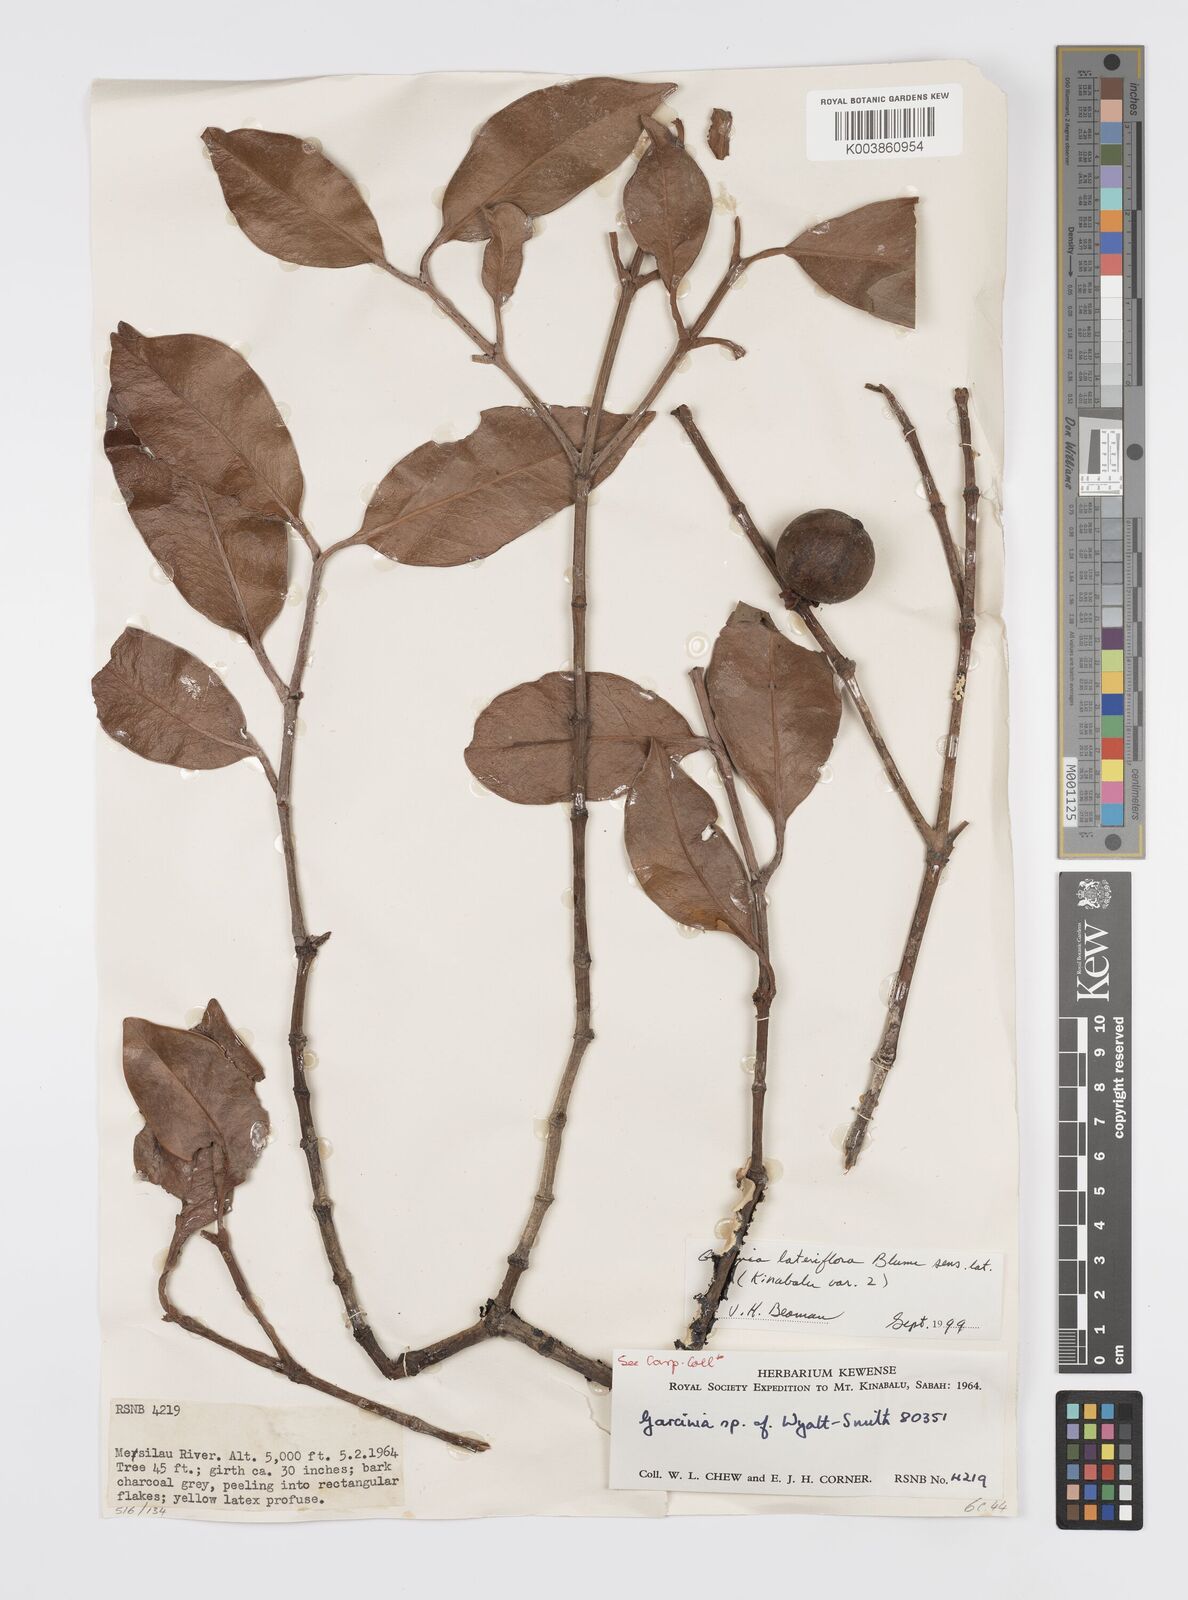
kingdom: Plantae
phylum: Tracheophyta
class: Magnoliopsida
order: Malpighiales
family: Clusiaceae
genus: Garcinia
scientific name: Garcinia lateriflora
